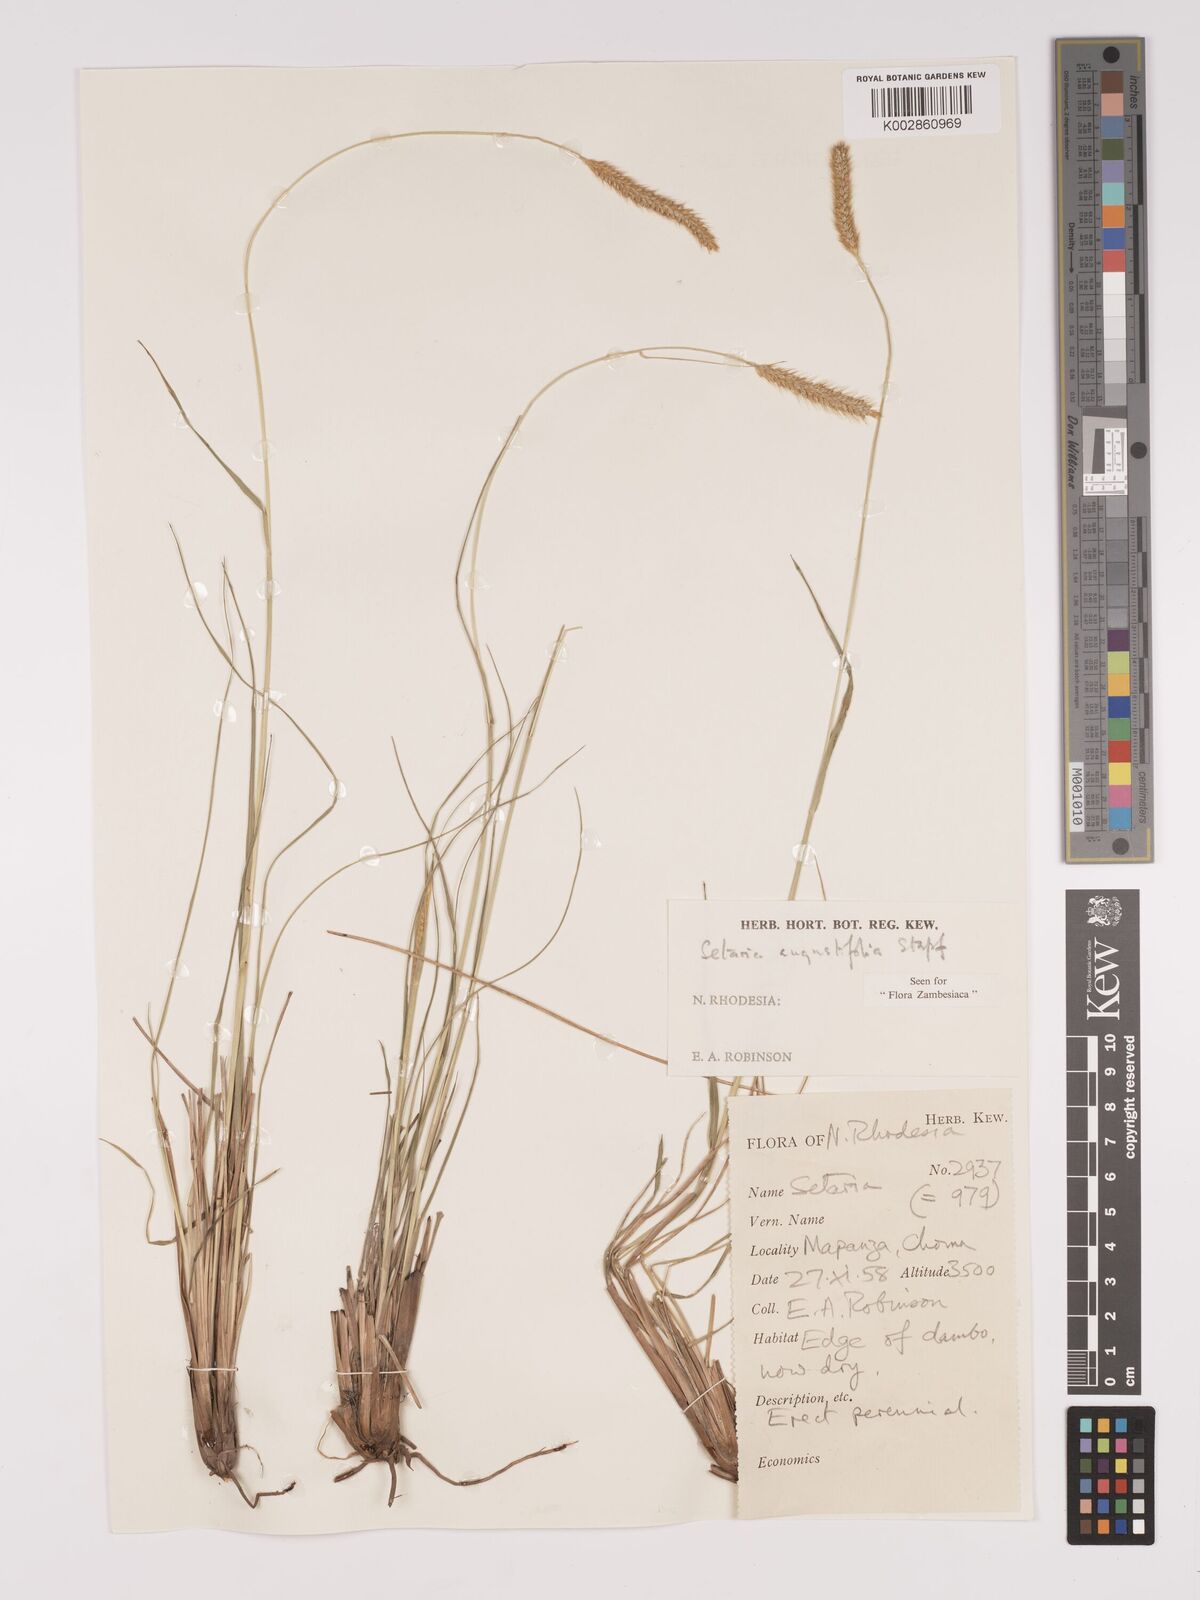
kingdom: Plantae
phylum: Tracheophyta
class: Liliopsida
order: Poales
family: Poaceae
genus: Setaria
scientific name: Setaria
